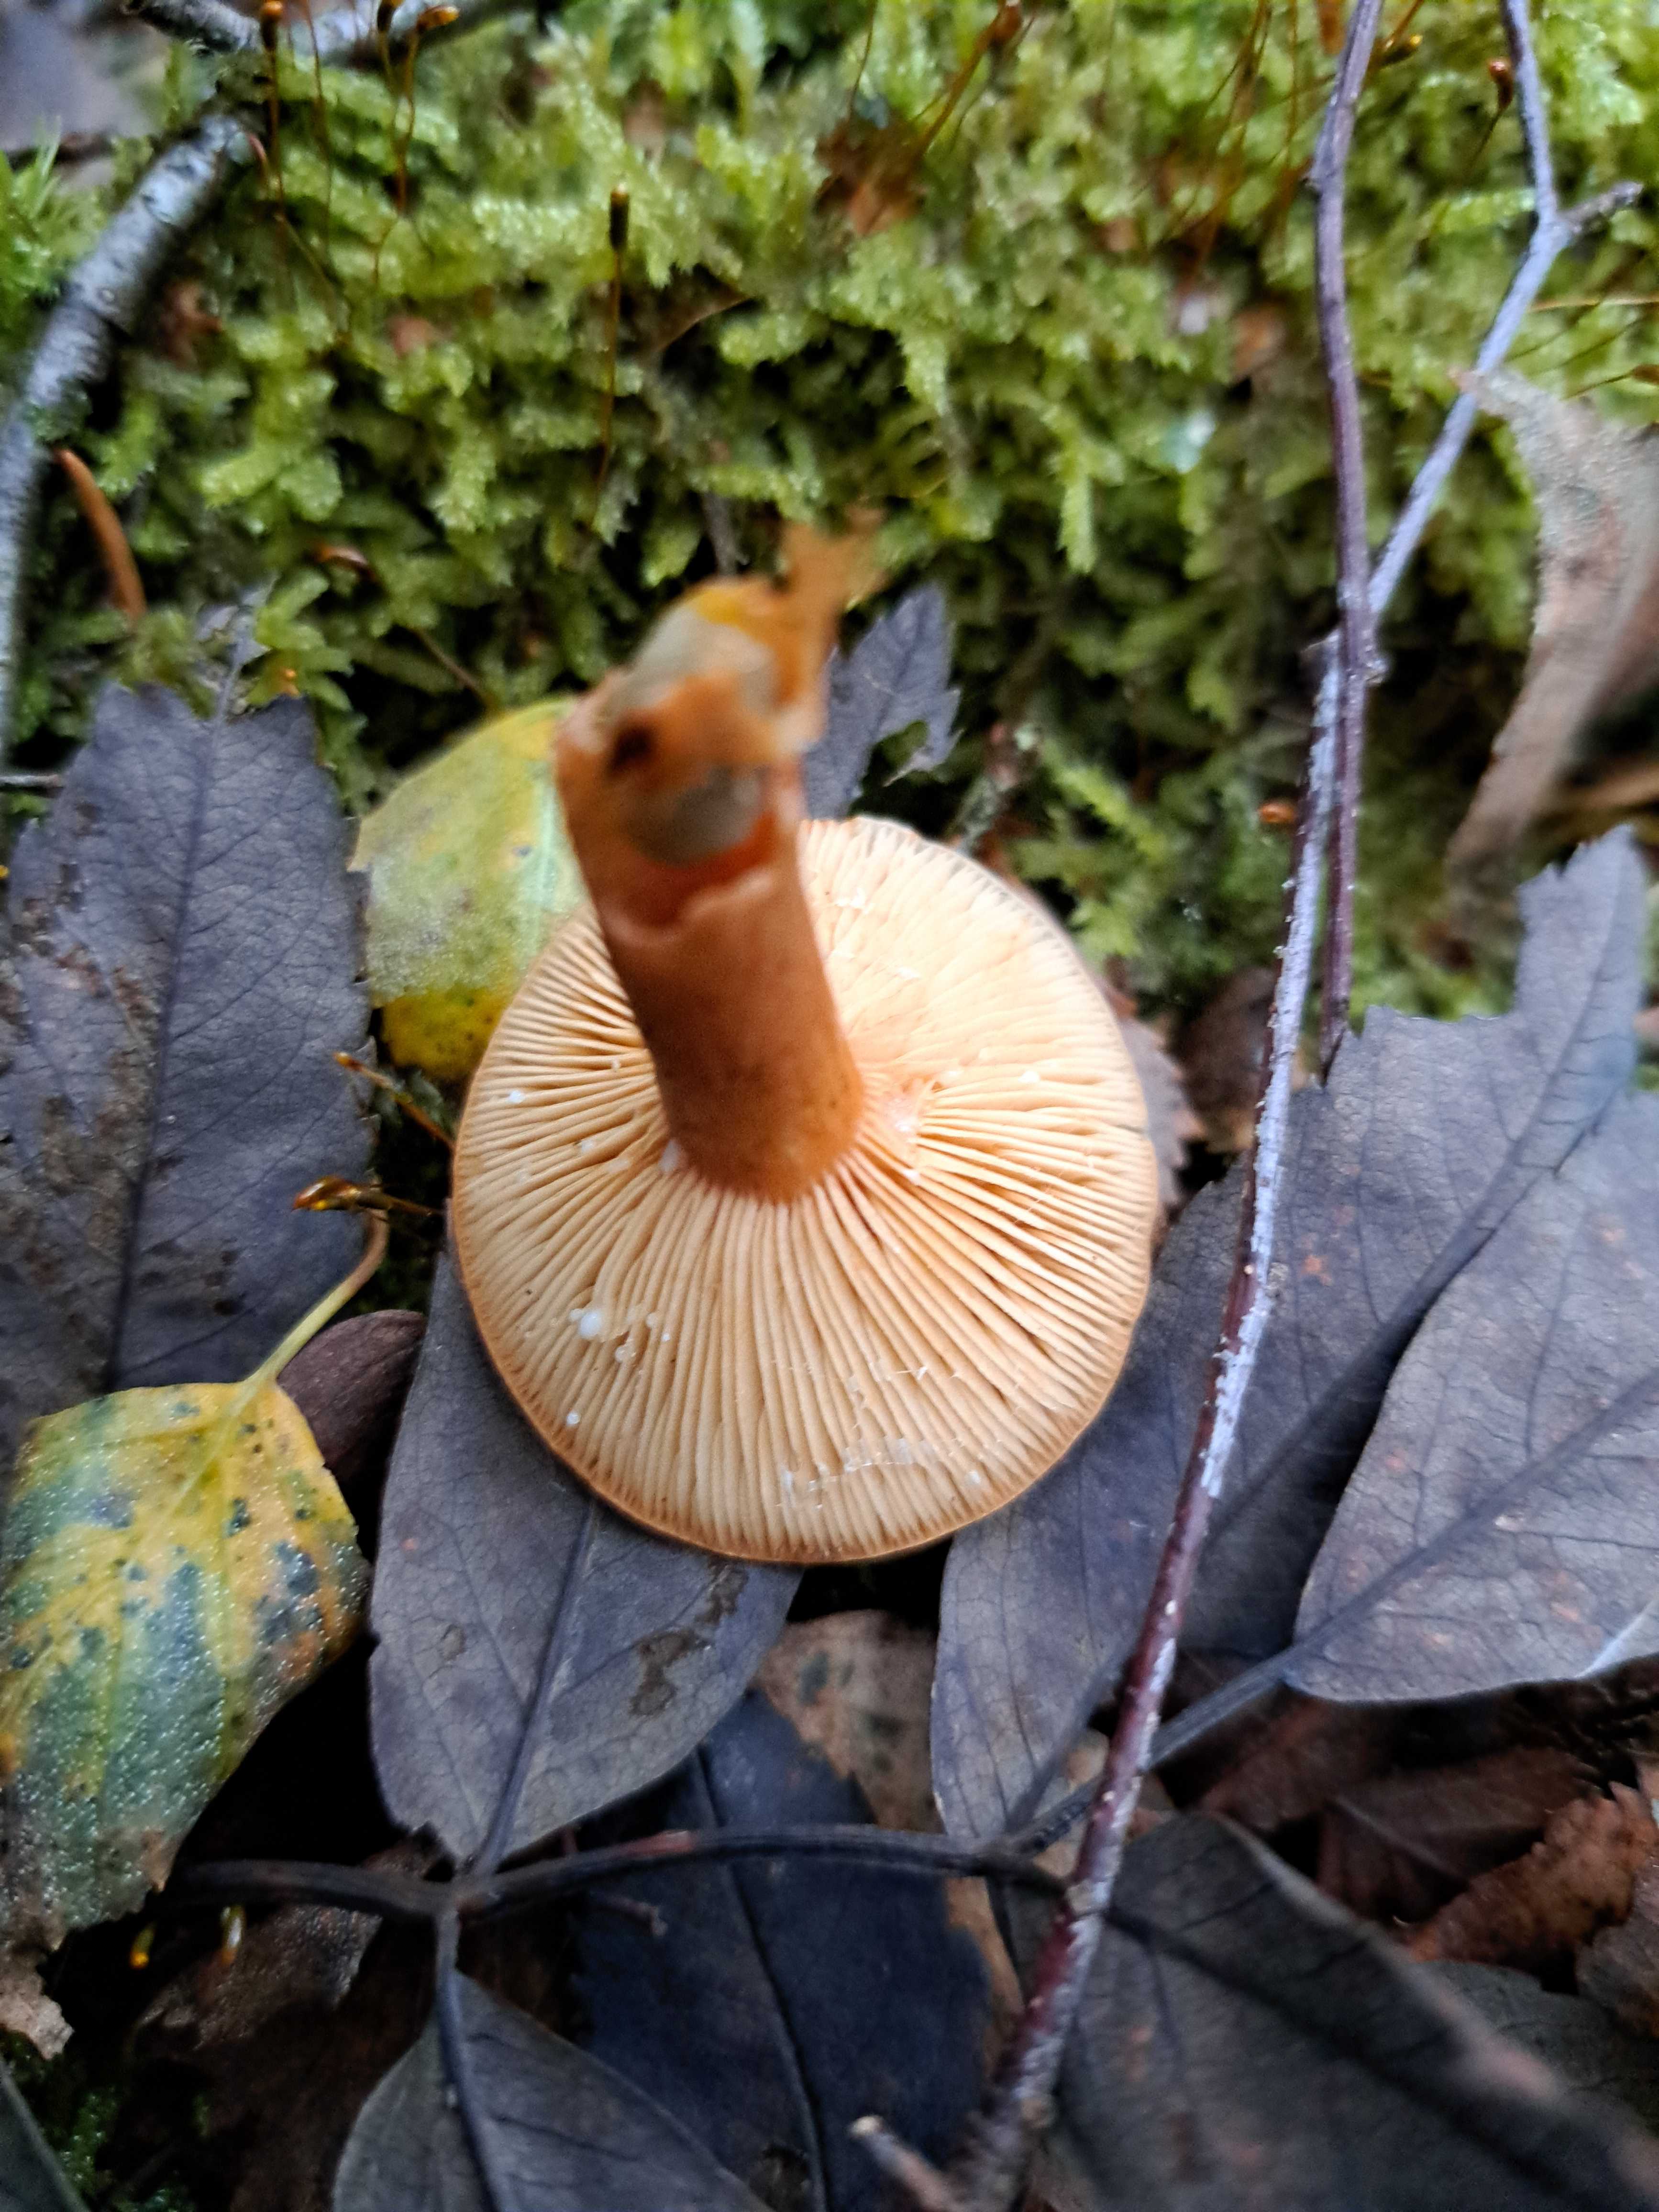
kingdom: Fungi
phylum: Basidiomycota
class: Agaricomycetes
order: Russulales
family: Russulaceae
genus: Lactarius
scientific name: Lactarius tabidus
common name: rynket mælkehat
